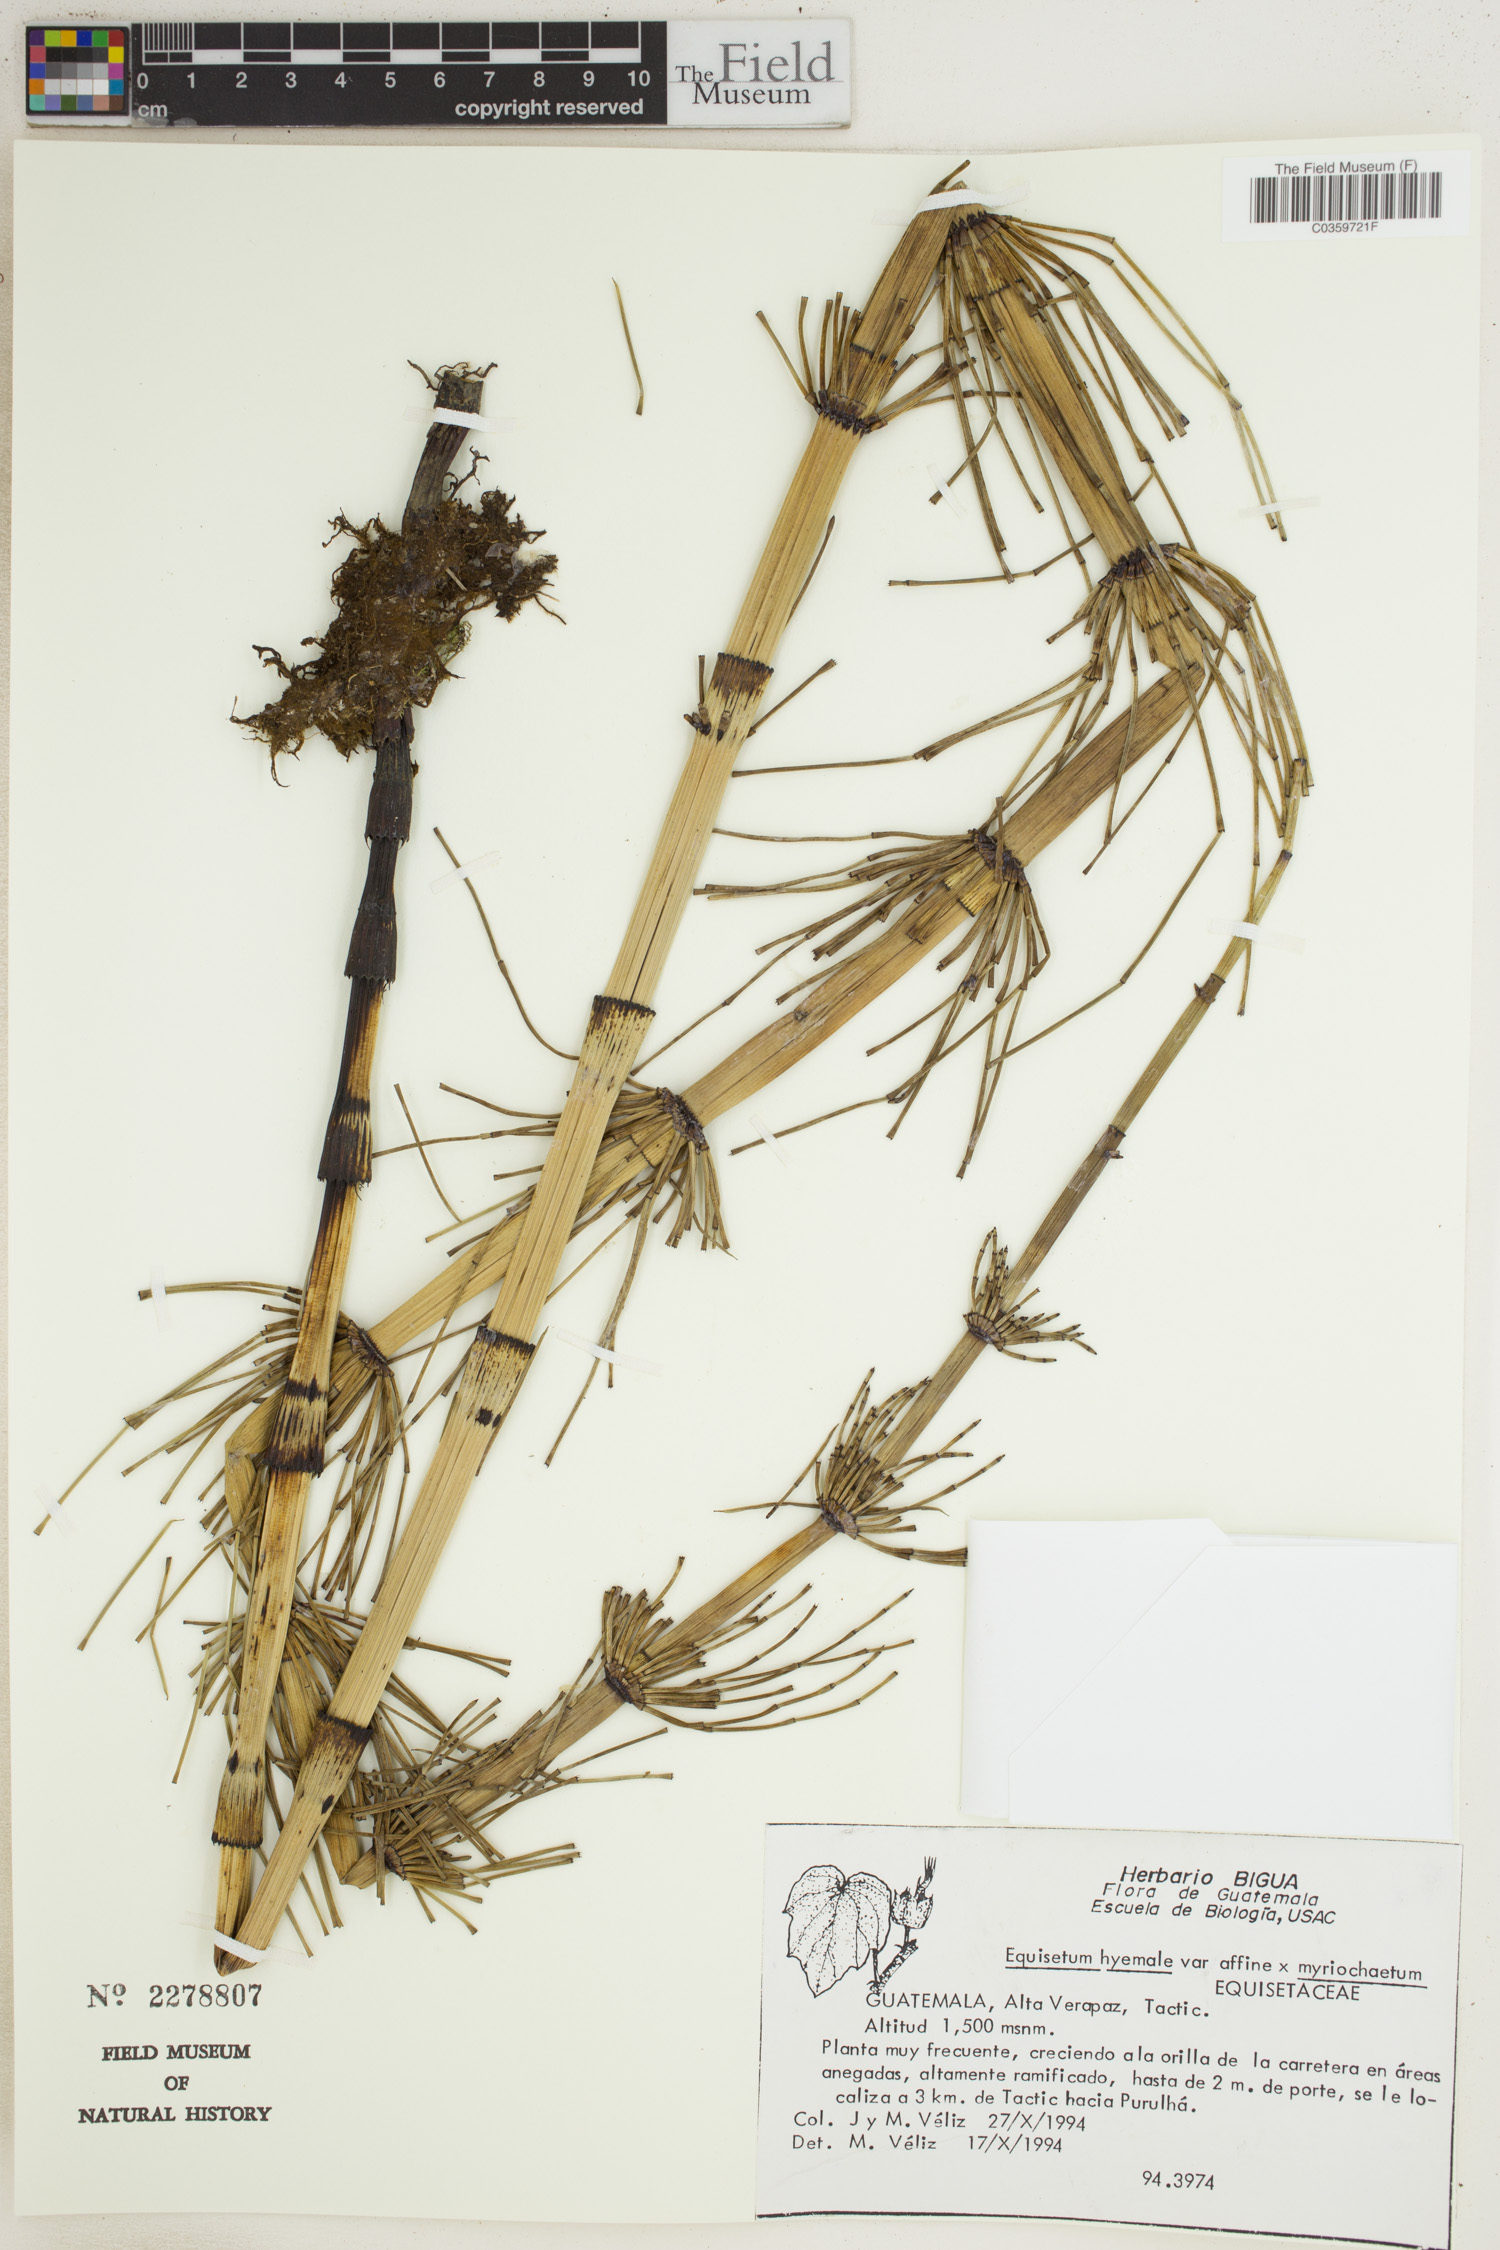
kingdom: Plantae
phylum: Tracheophyta
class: Polypodiopsida
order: Equisetales
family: Equisetaceae
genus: Equisetum
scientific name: Equisetum praealtum
